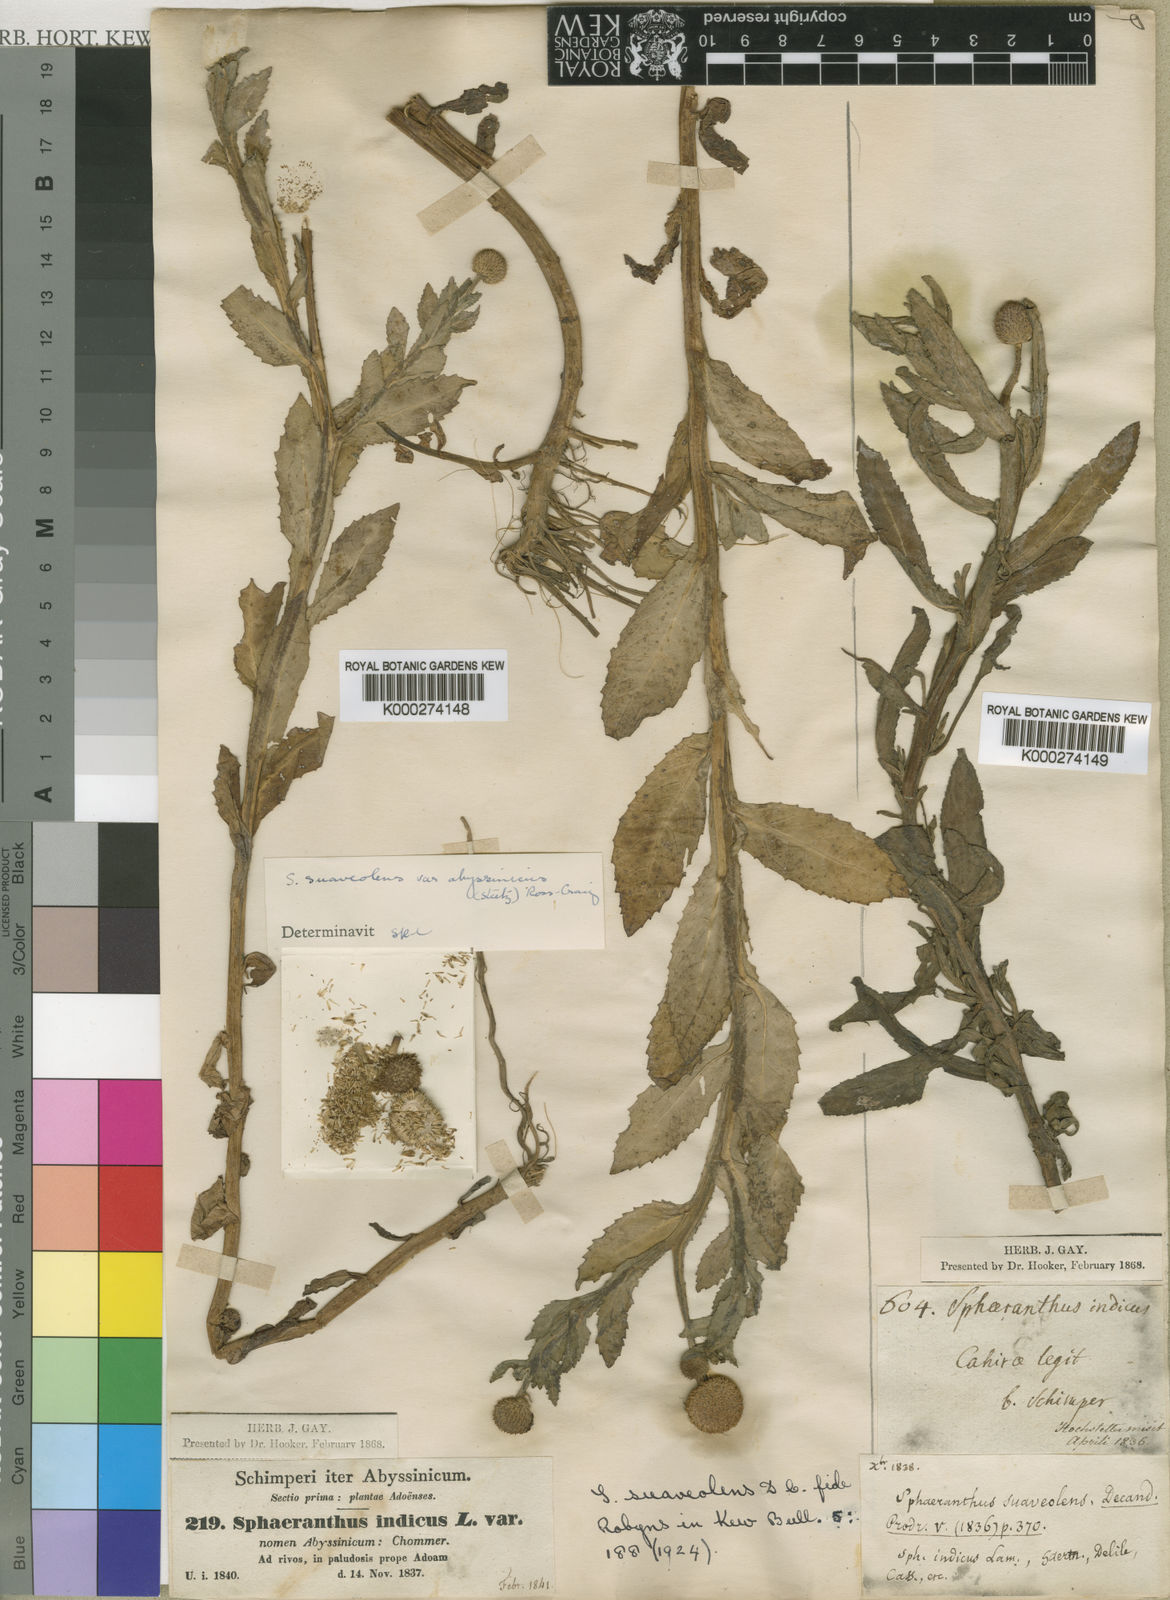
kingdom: Plantae
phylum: Tracheophyta
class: Magnoliopsida
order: Asterales
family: Asteraceae
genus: Sphaeranthus
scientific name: Sphaeranthus suaveolens
